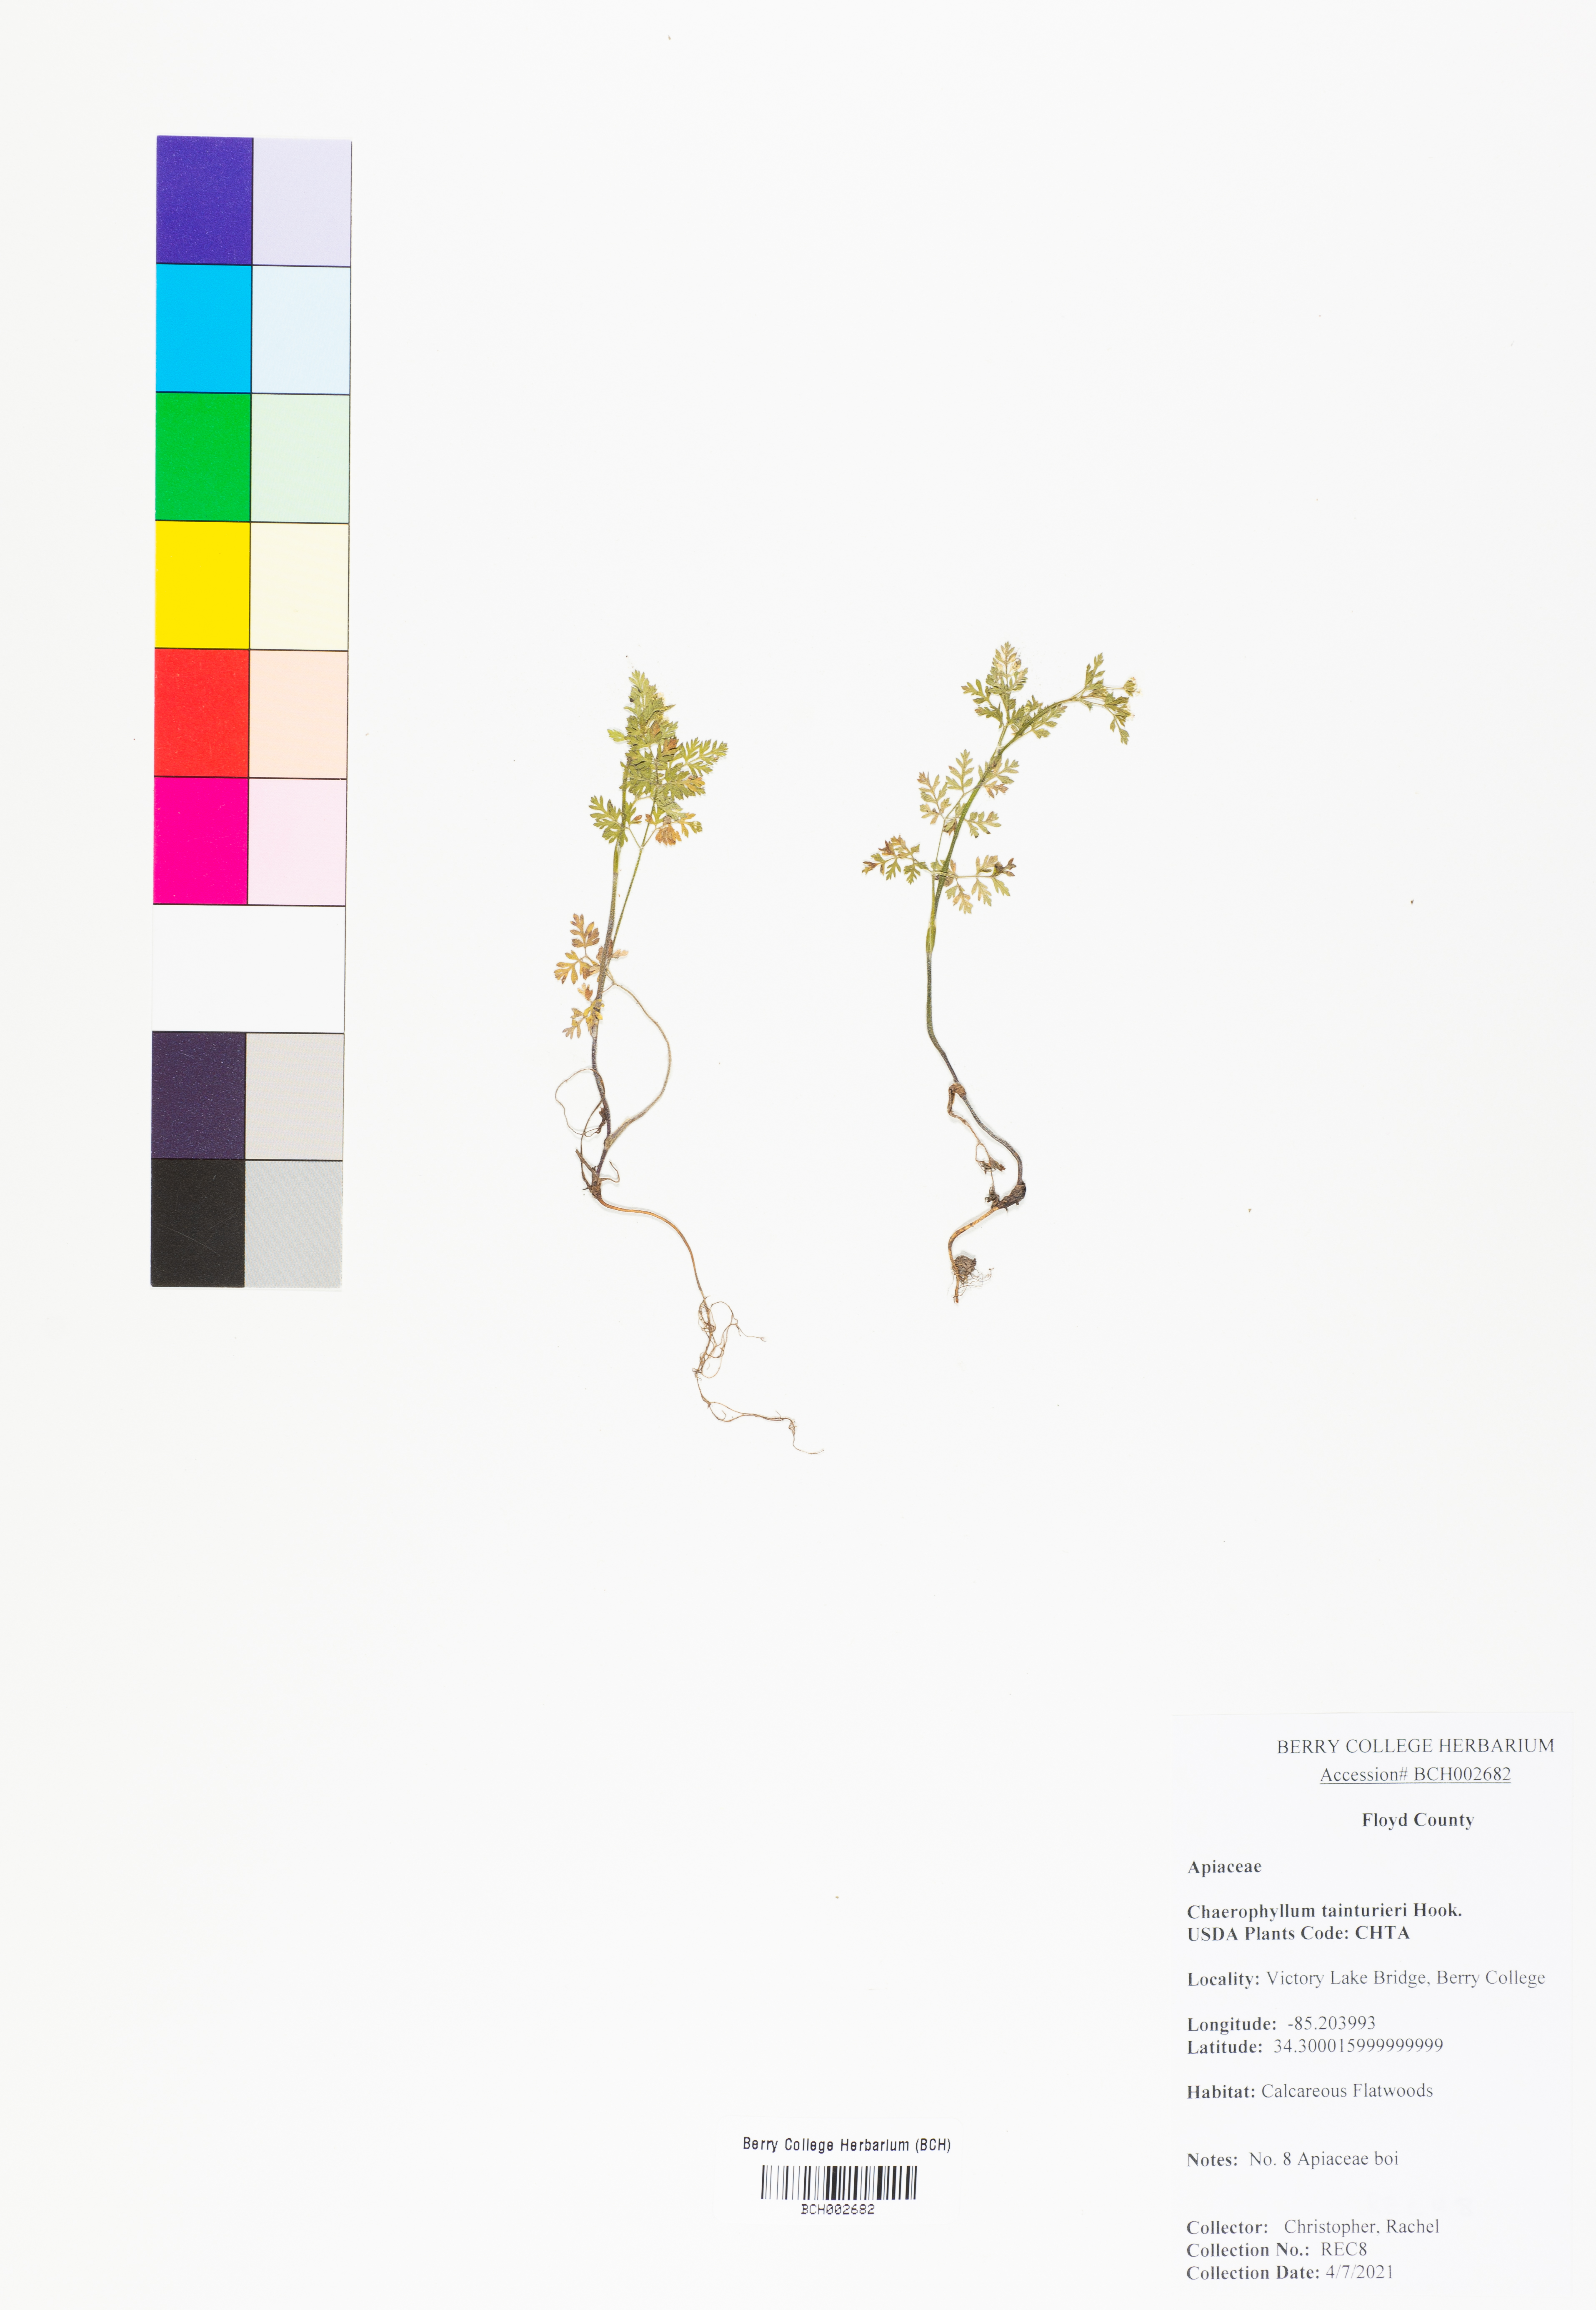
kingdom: Plantae
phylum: Tracheophyta
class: Magnoliopsida
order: Apiales
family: Apiaceae
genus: Chaerophyllum
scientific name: Chaerophyllum tainturieri
